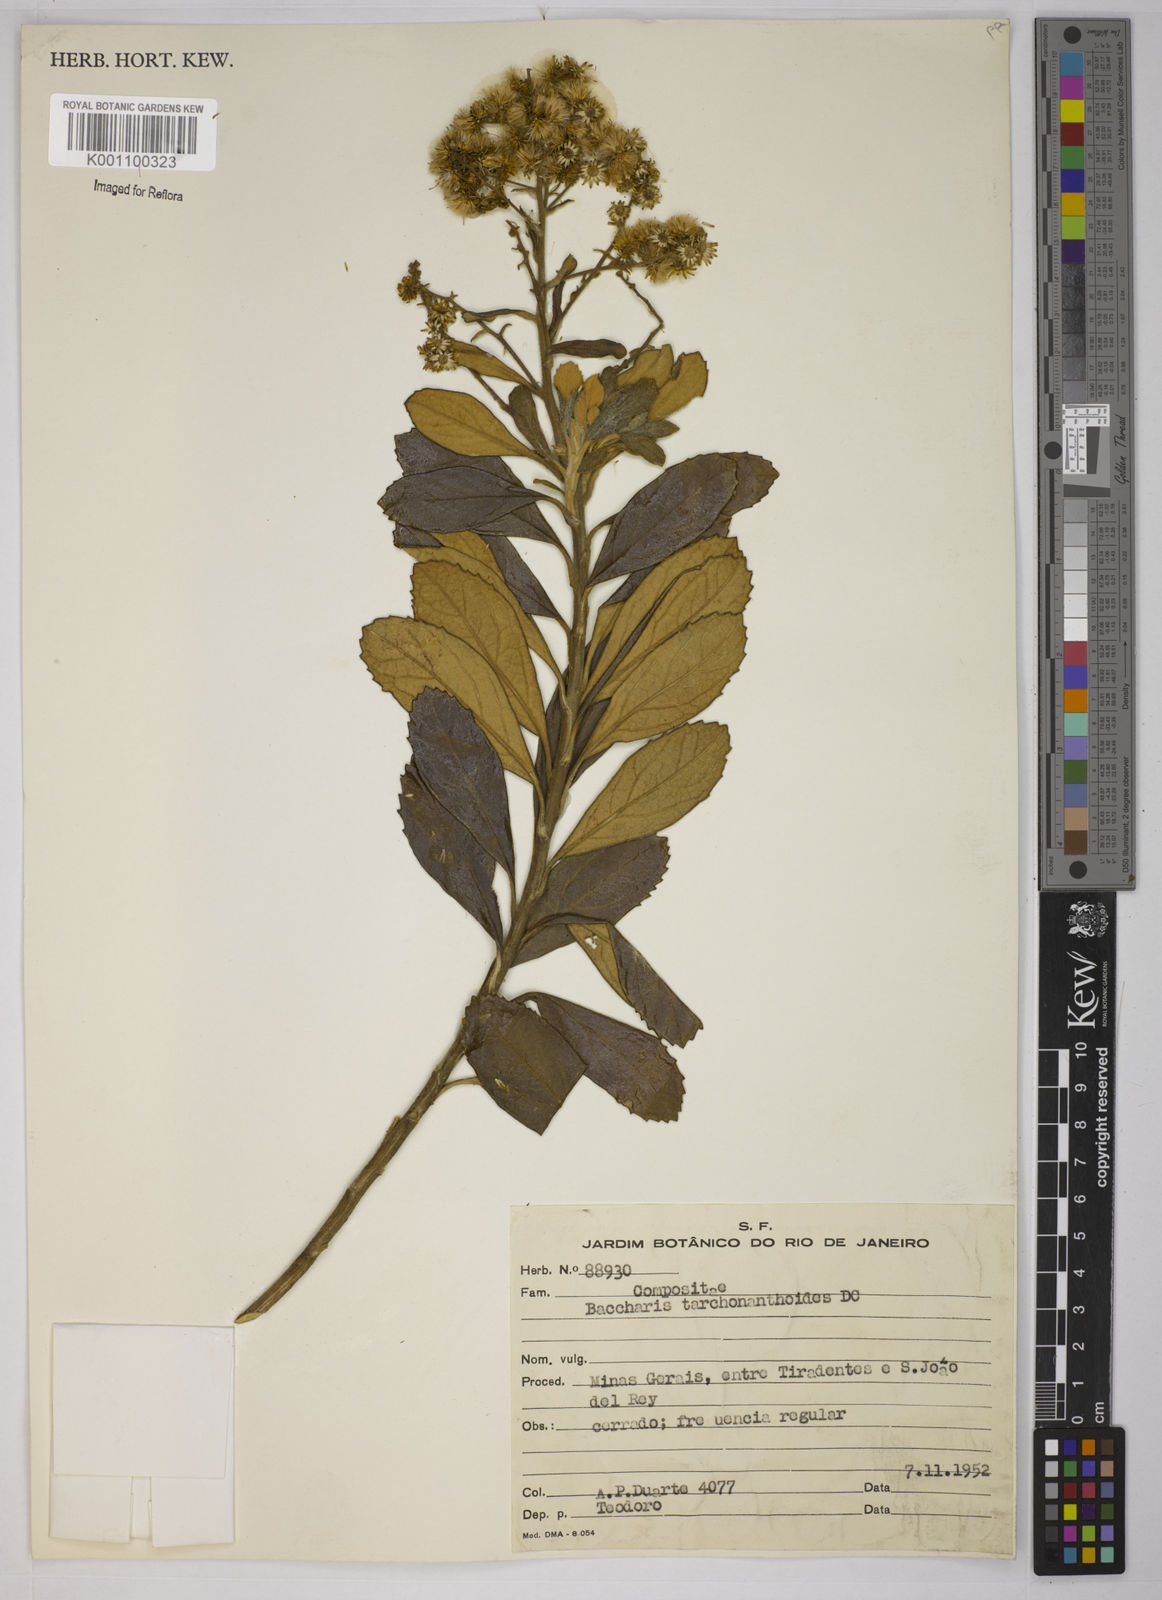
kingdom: Plantae
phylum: Tracheophyta
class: Magnoliopsida
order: Asterales
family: Asteraceae
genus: Baccharis
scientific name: Baccharis
